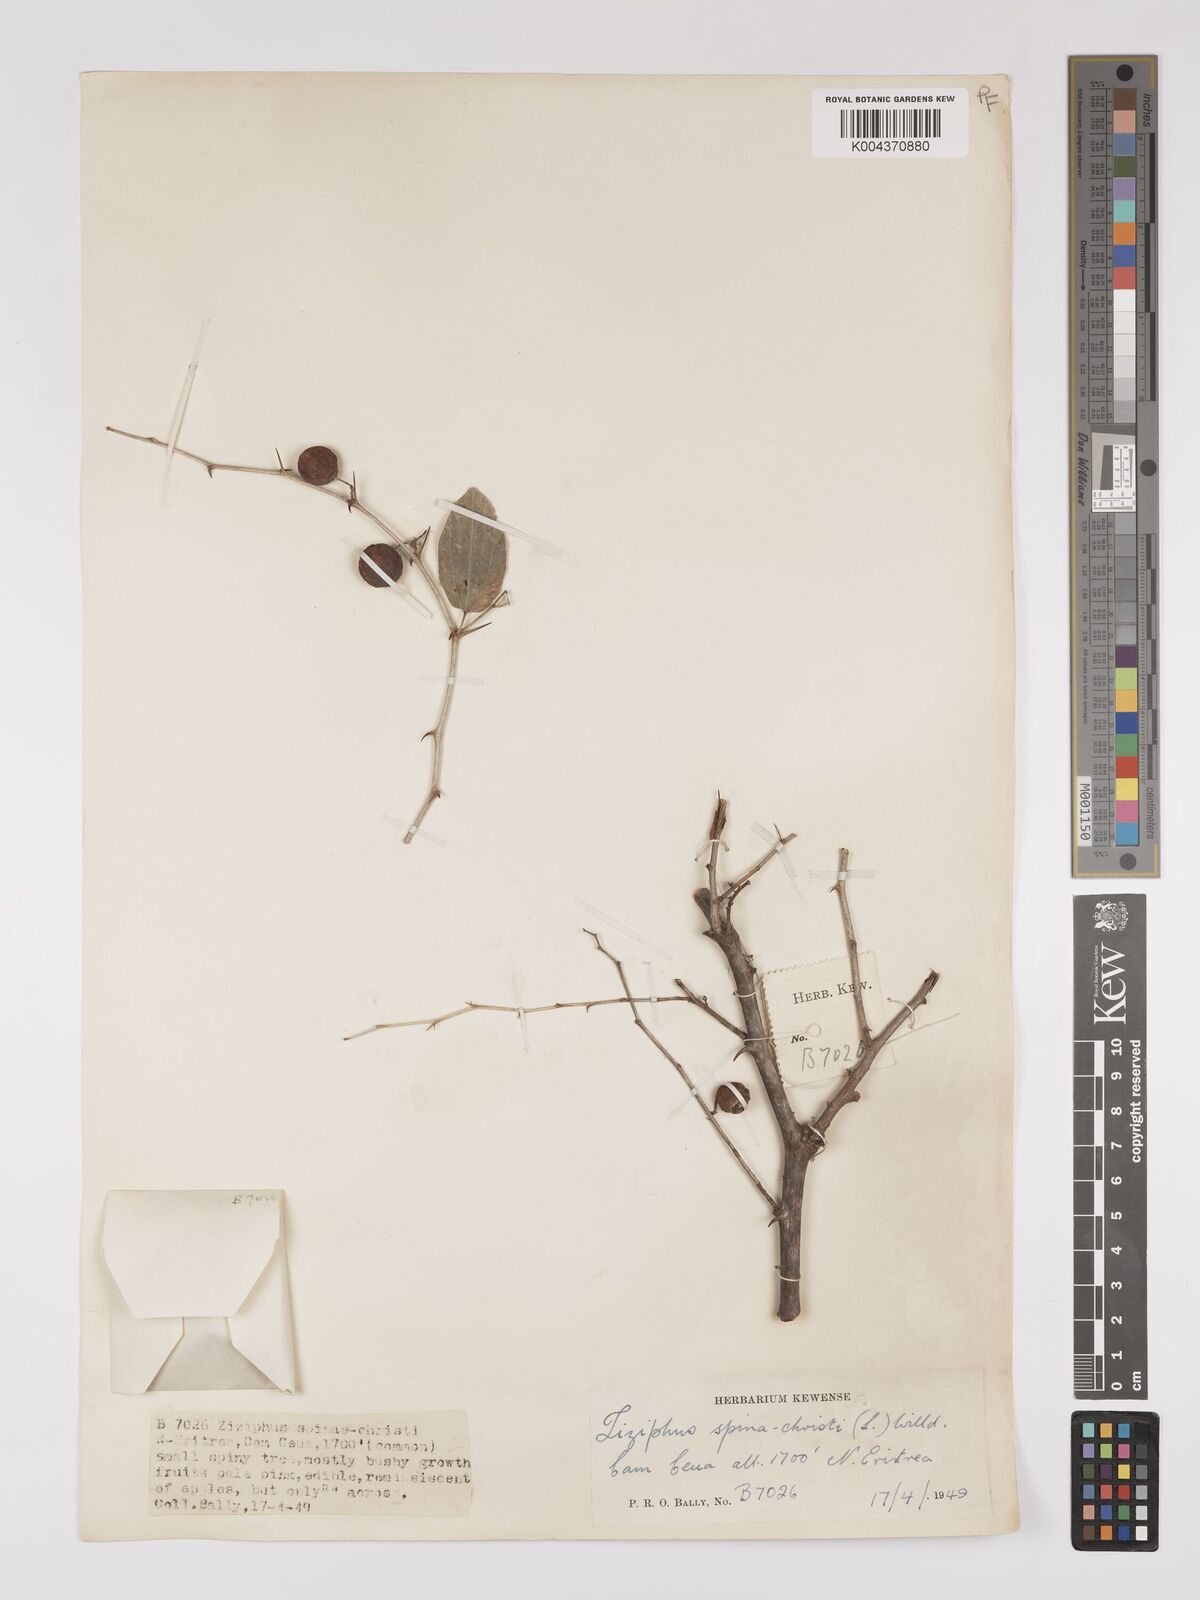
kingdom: Plantae
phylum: Tracheophyta
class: Magnoliopsida
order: Rosales
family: Rhamnaceae
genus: Ziziphus
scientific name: Ziziphus spina-christi
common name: Syrian christ-thorn
